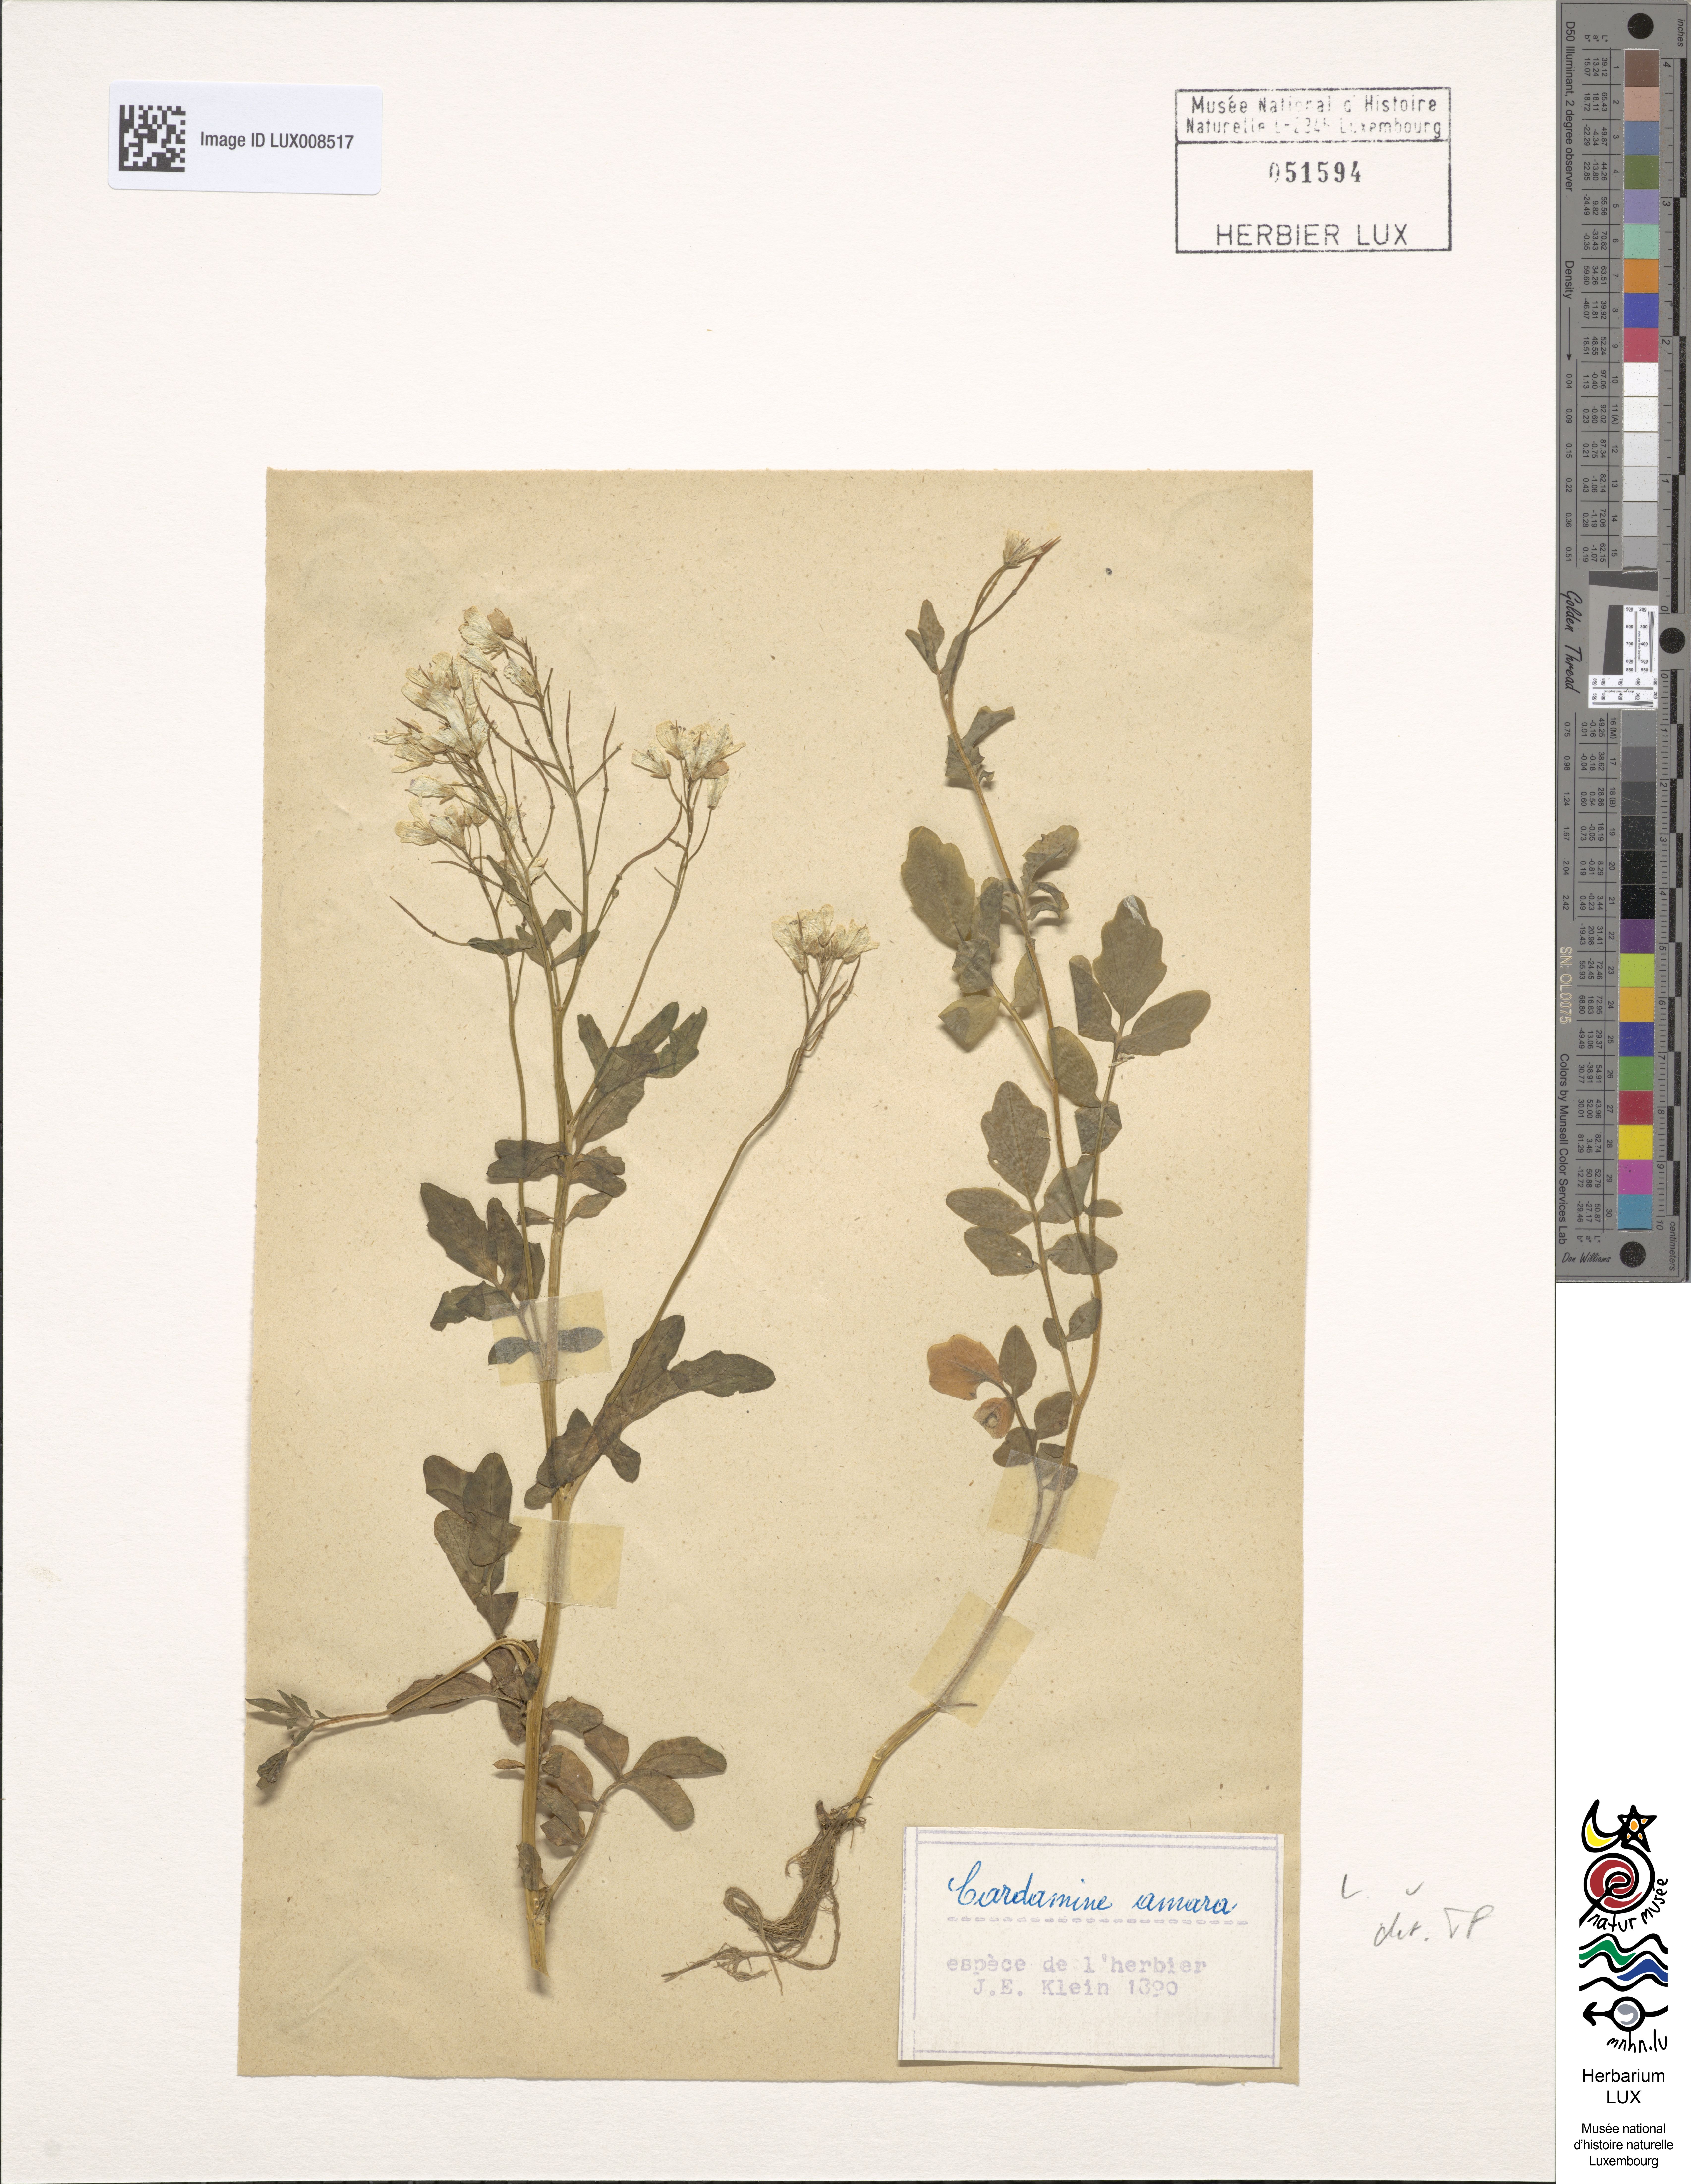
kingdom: Plantae
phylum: Tracheophyta
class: Magnoliopsida
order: Brassicales
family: Brassicaceae
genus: Cardamine
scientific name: Cardamine amara
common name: Large bitter-cress
